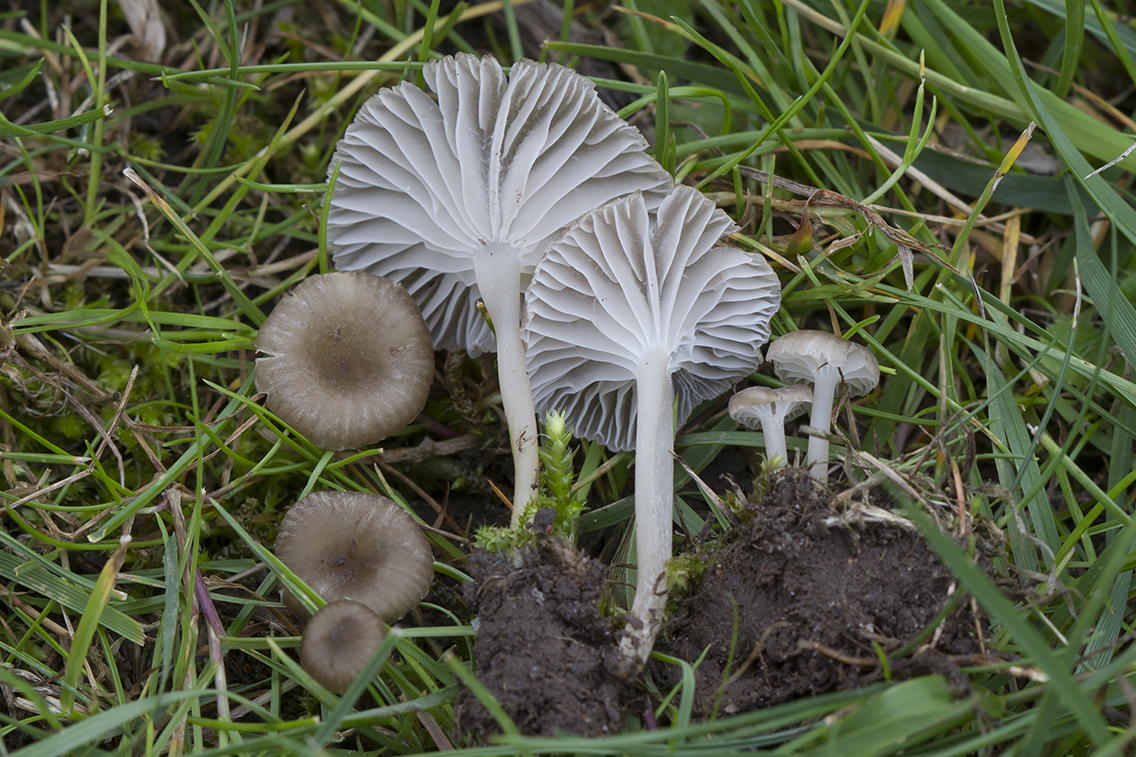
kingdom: Fungi
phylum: Basidiomycota
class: Agaricomycetes
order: Agaricales
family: Tricholomataceae
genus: Gamundia
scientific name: Gamundia striatula
